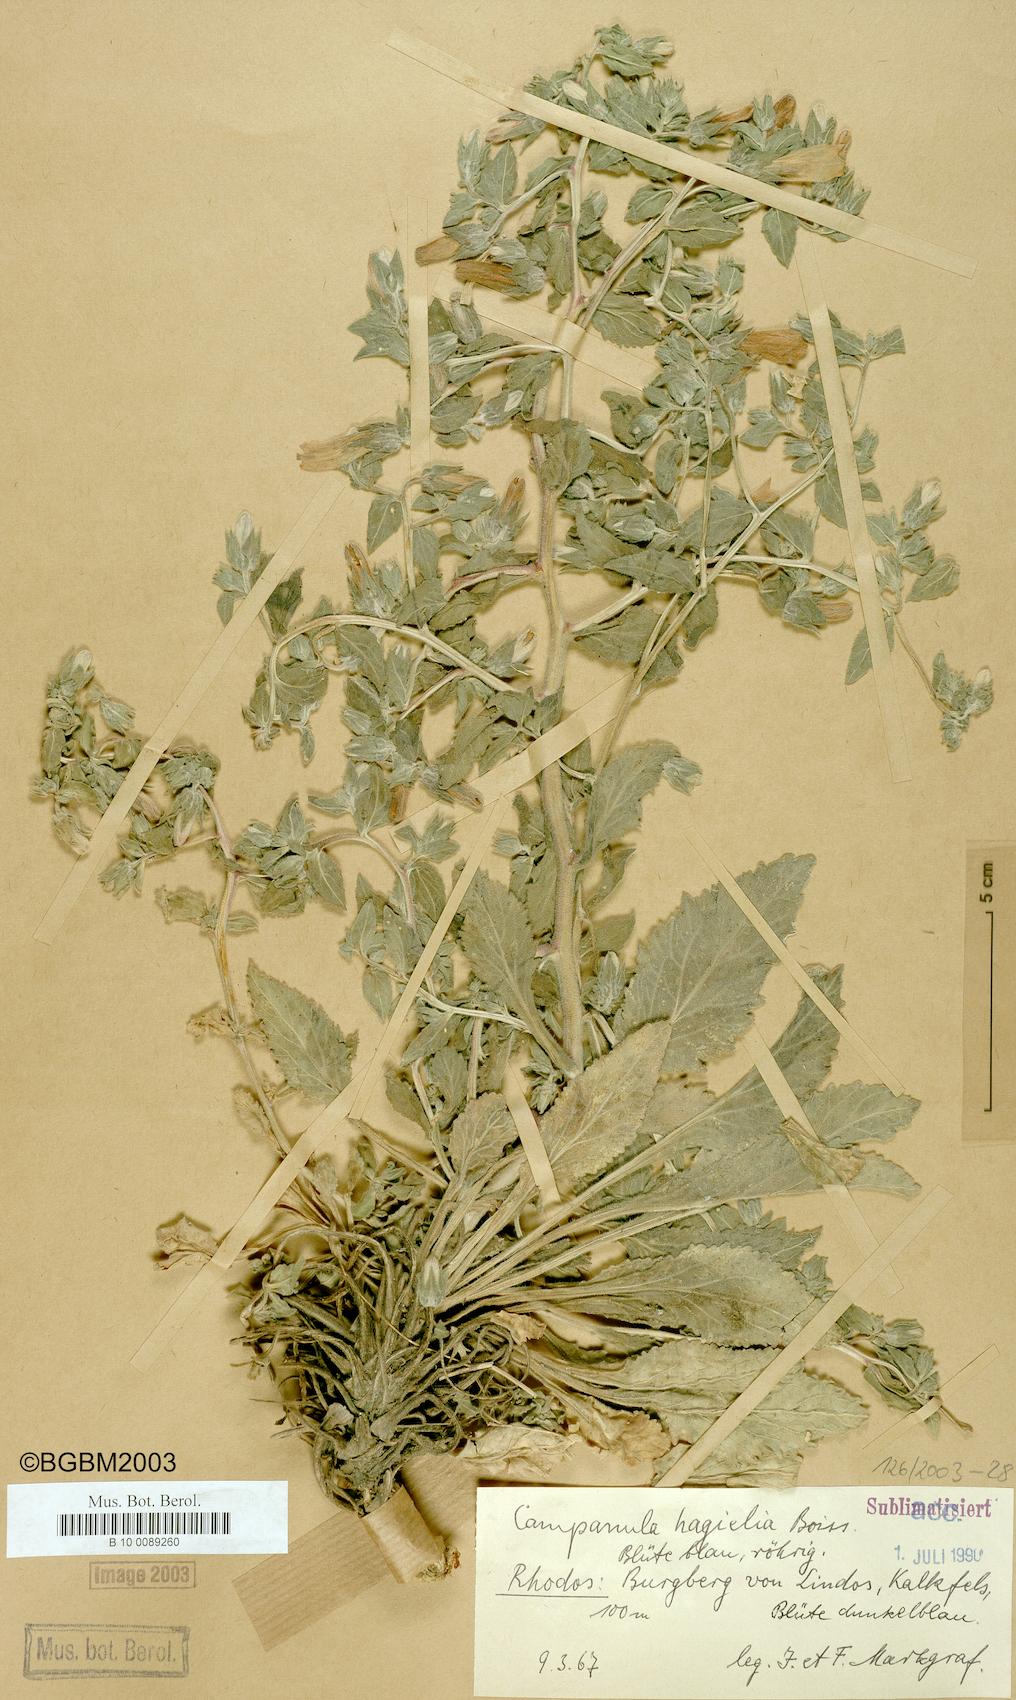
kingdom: Plantae
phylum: Tracheophyta
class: Magnoliopsida
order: Asterales
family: Campanulaceae
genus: Campanula
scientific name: Campanula hagielia
